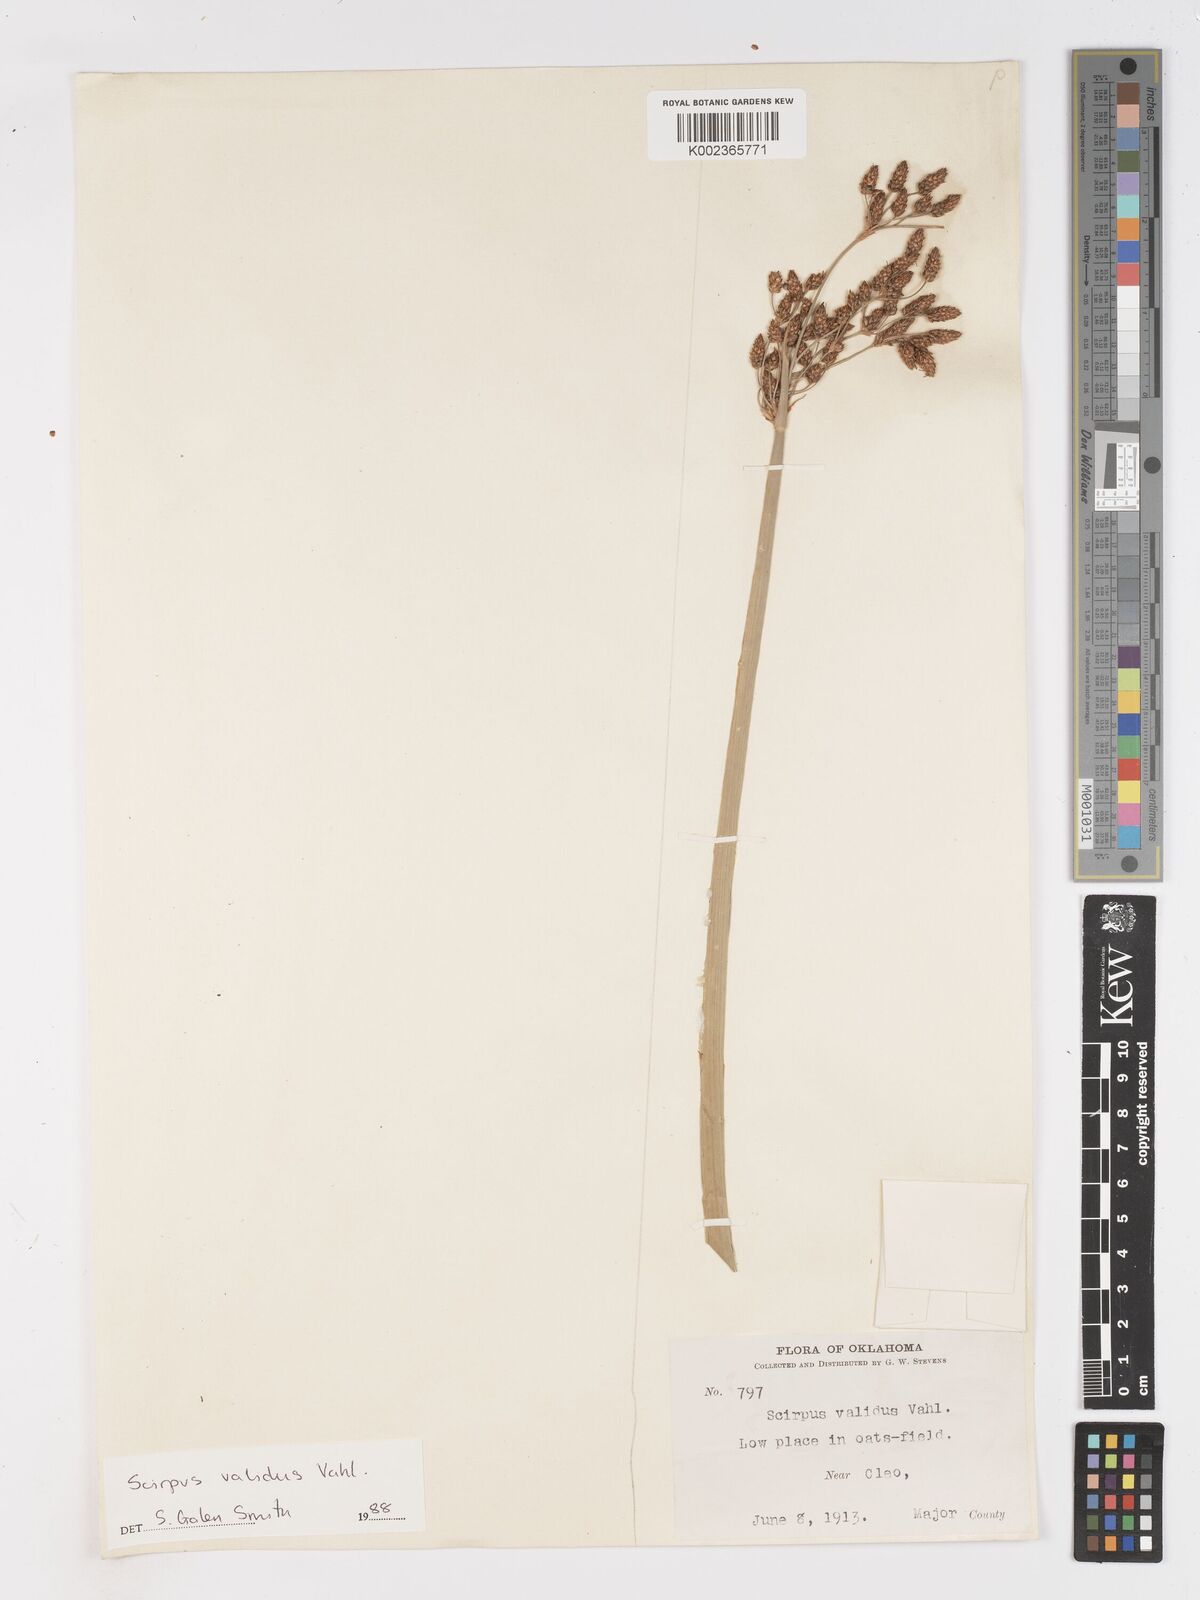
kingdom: Plantae
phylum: Tracheophyta
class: Liliopsida
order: Poales
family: Cyperaceae
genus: Schoenoplectus
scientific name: Schoenoplectus tabernaemontani
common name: Grey club-rush
